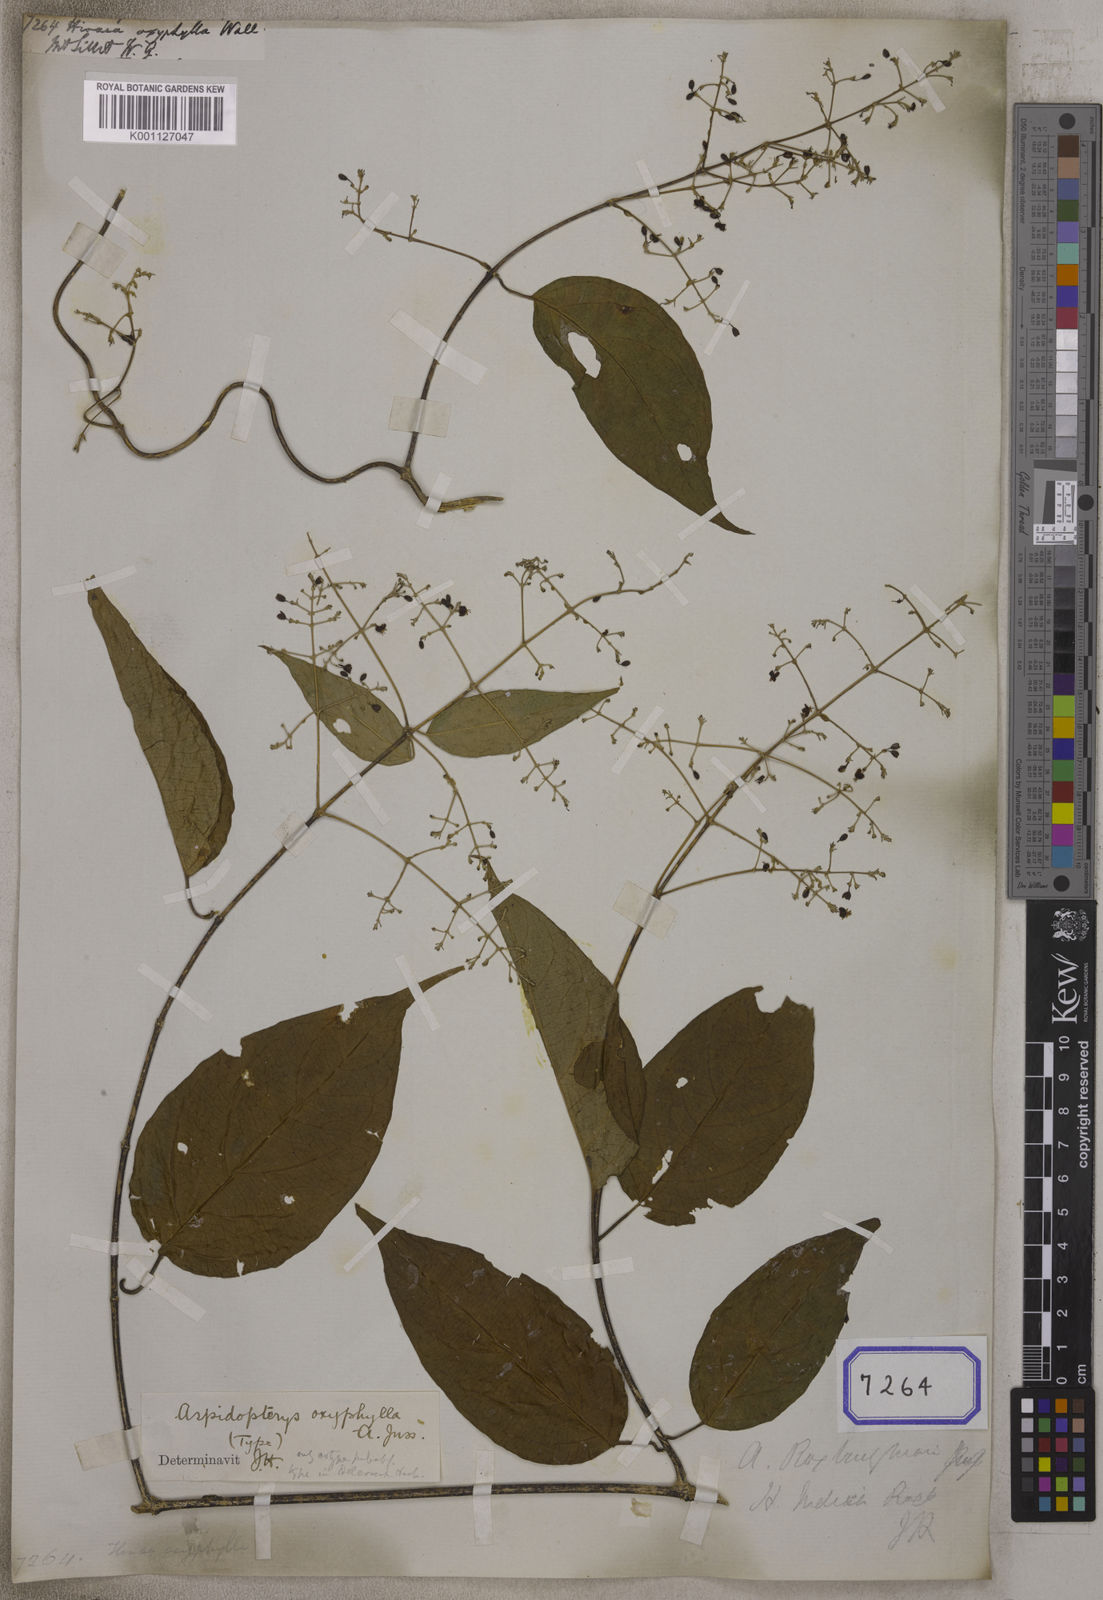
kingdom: Plantae
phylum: Tracheophyta
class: Magnoliopsida
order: Malpighiales
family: Malpighiaceae
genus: Aspidopterys
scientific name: Aspidopterys oxyphylla
